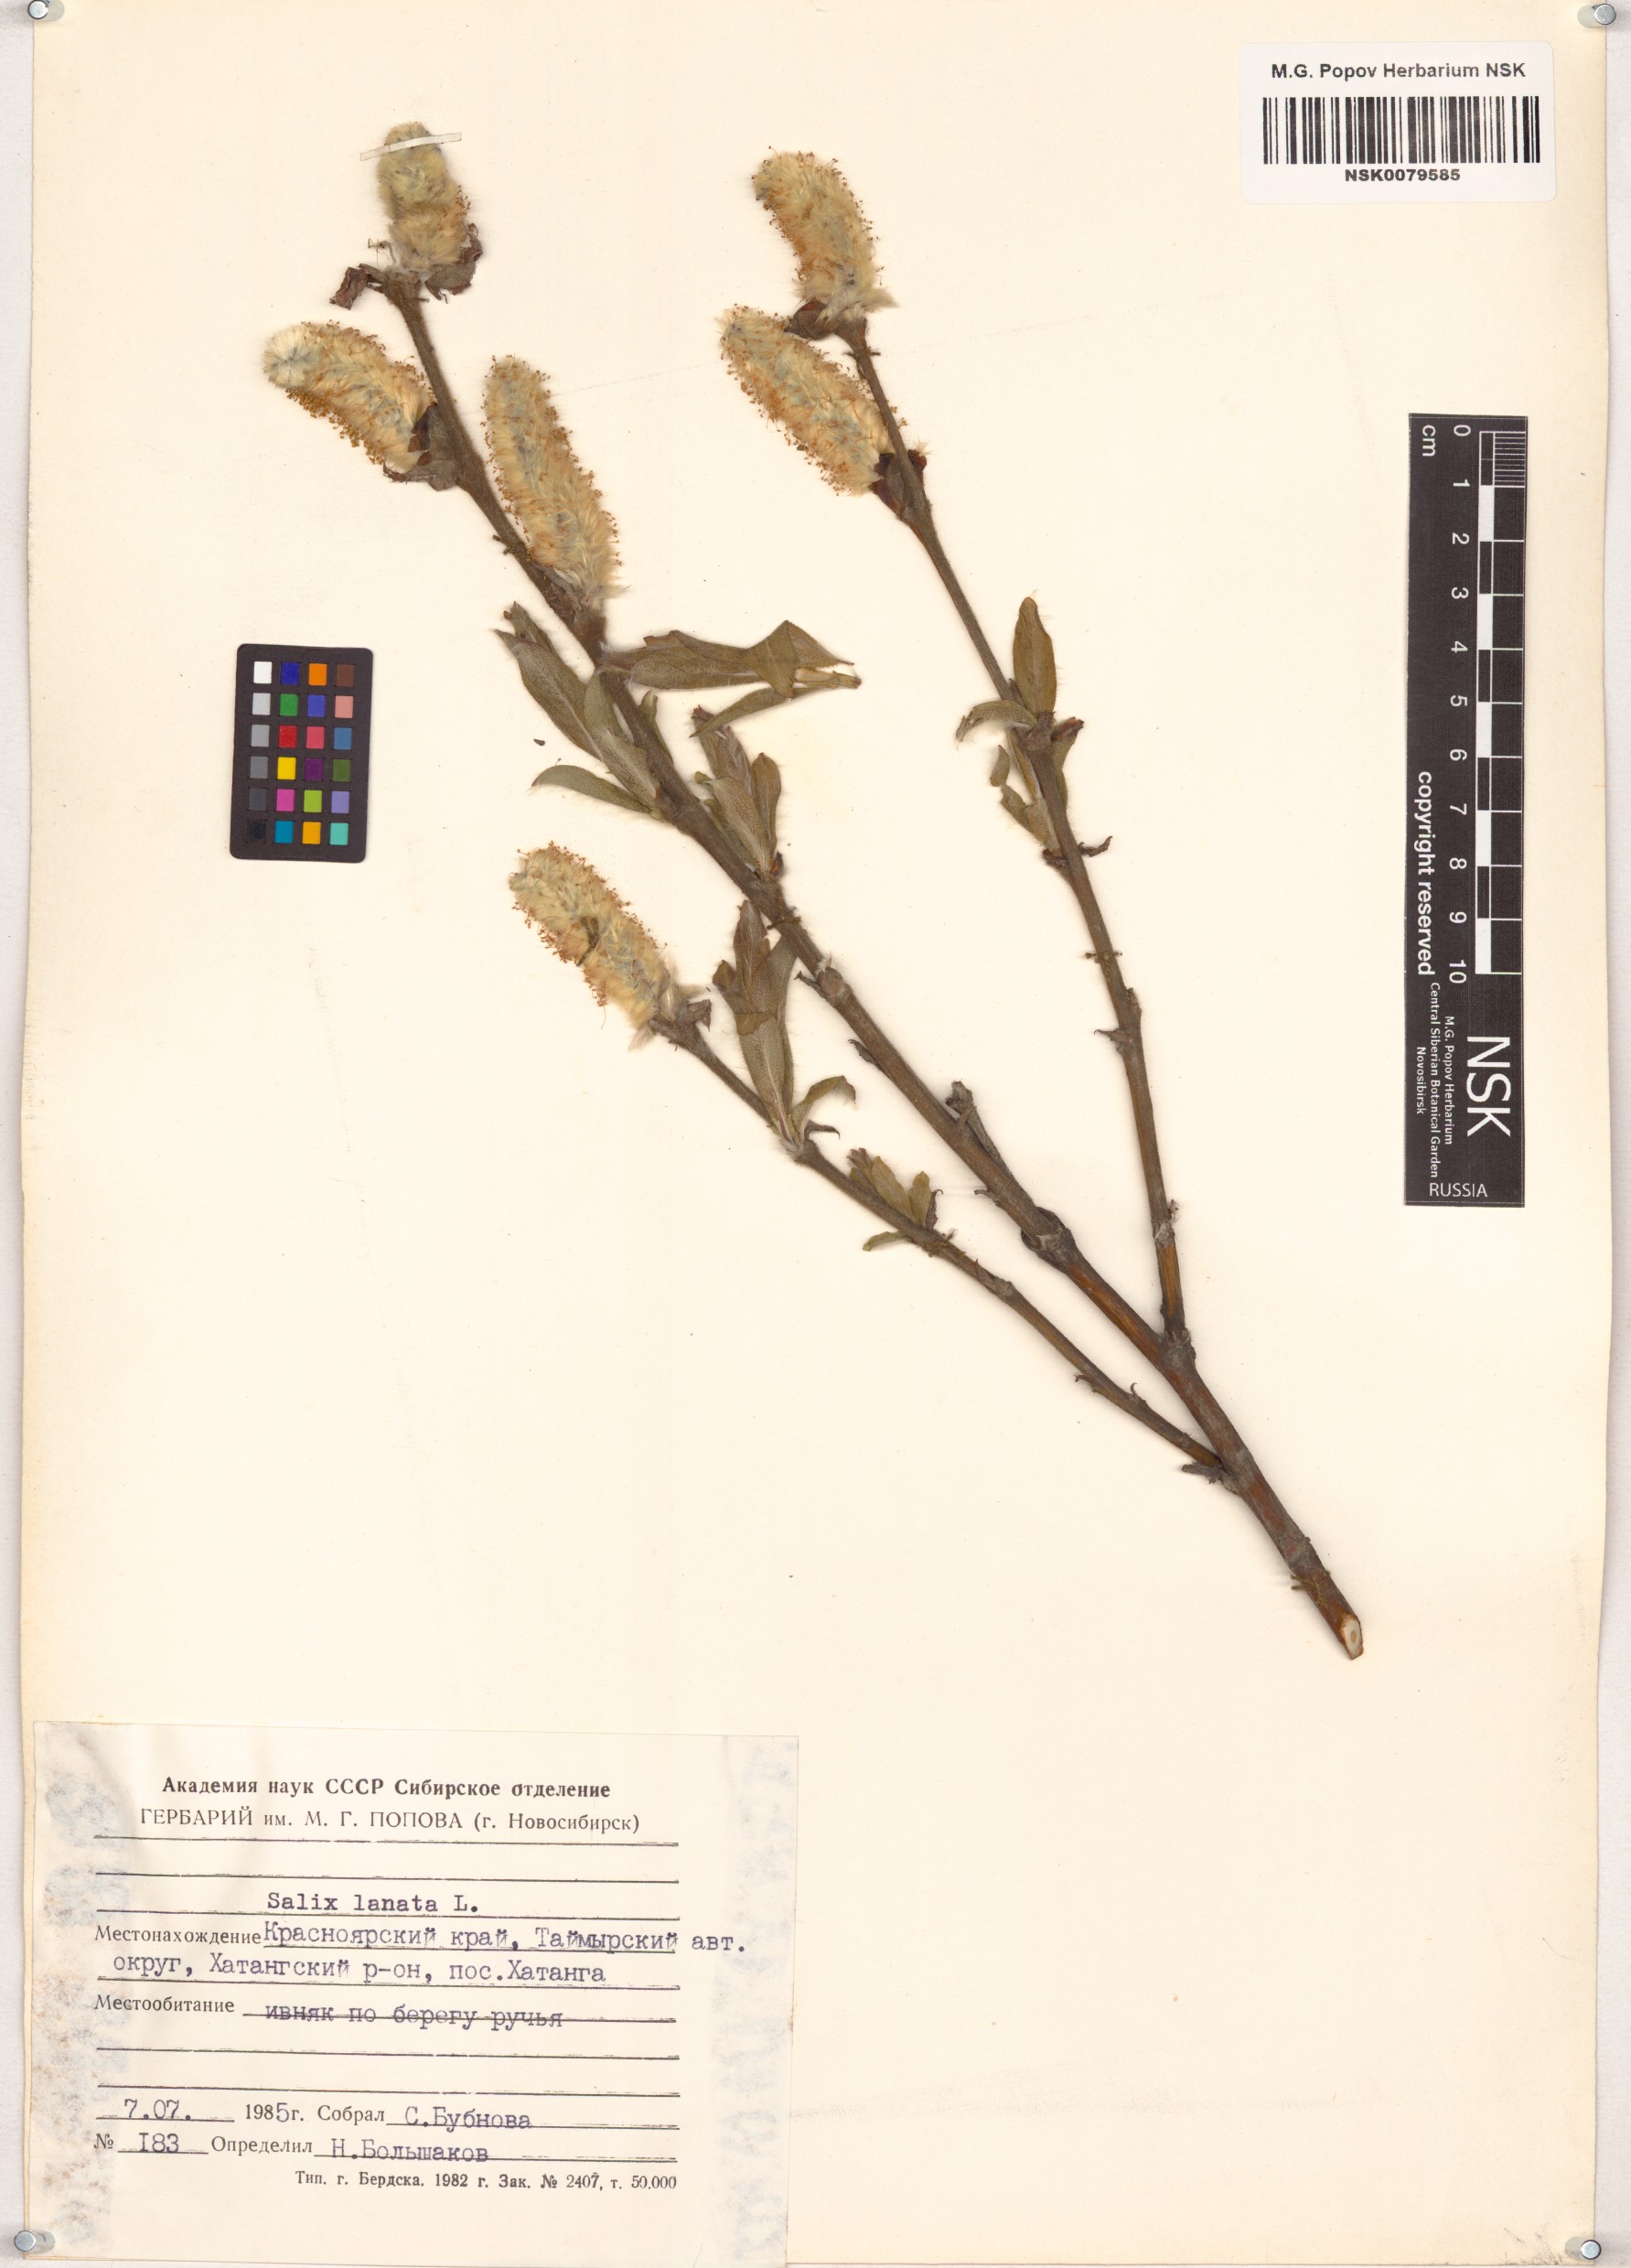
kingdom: Plantae
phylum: Tracheophyta
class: Magnoliopsida
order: Malpighiales
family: Salicaceae
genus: Salix
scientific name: Salix lanata
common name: Woolly willow
